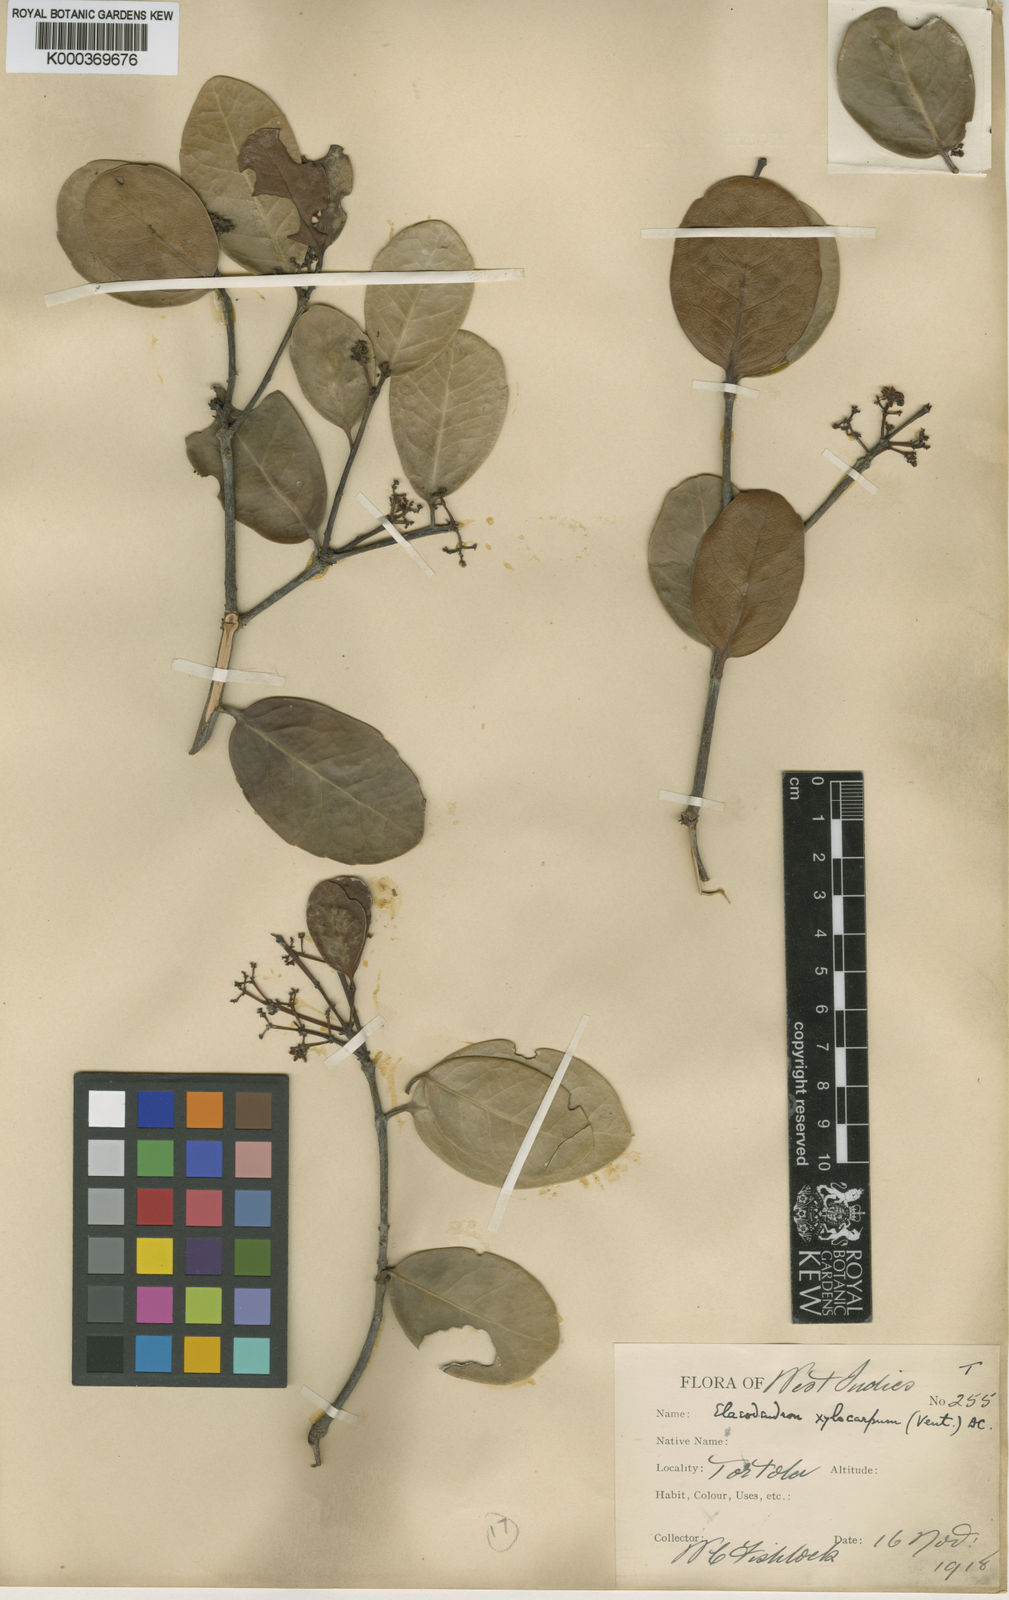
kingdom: Plantae
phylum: Tracheophyta
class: Magnoliopsida
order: Celastrales
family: Celastraceae
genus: Elaeodendron
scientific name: Elaeodendron xylocarpum
